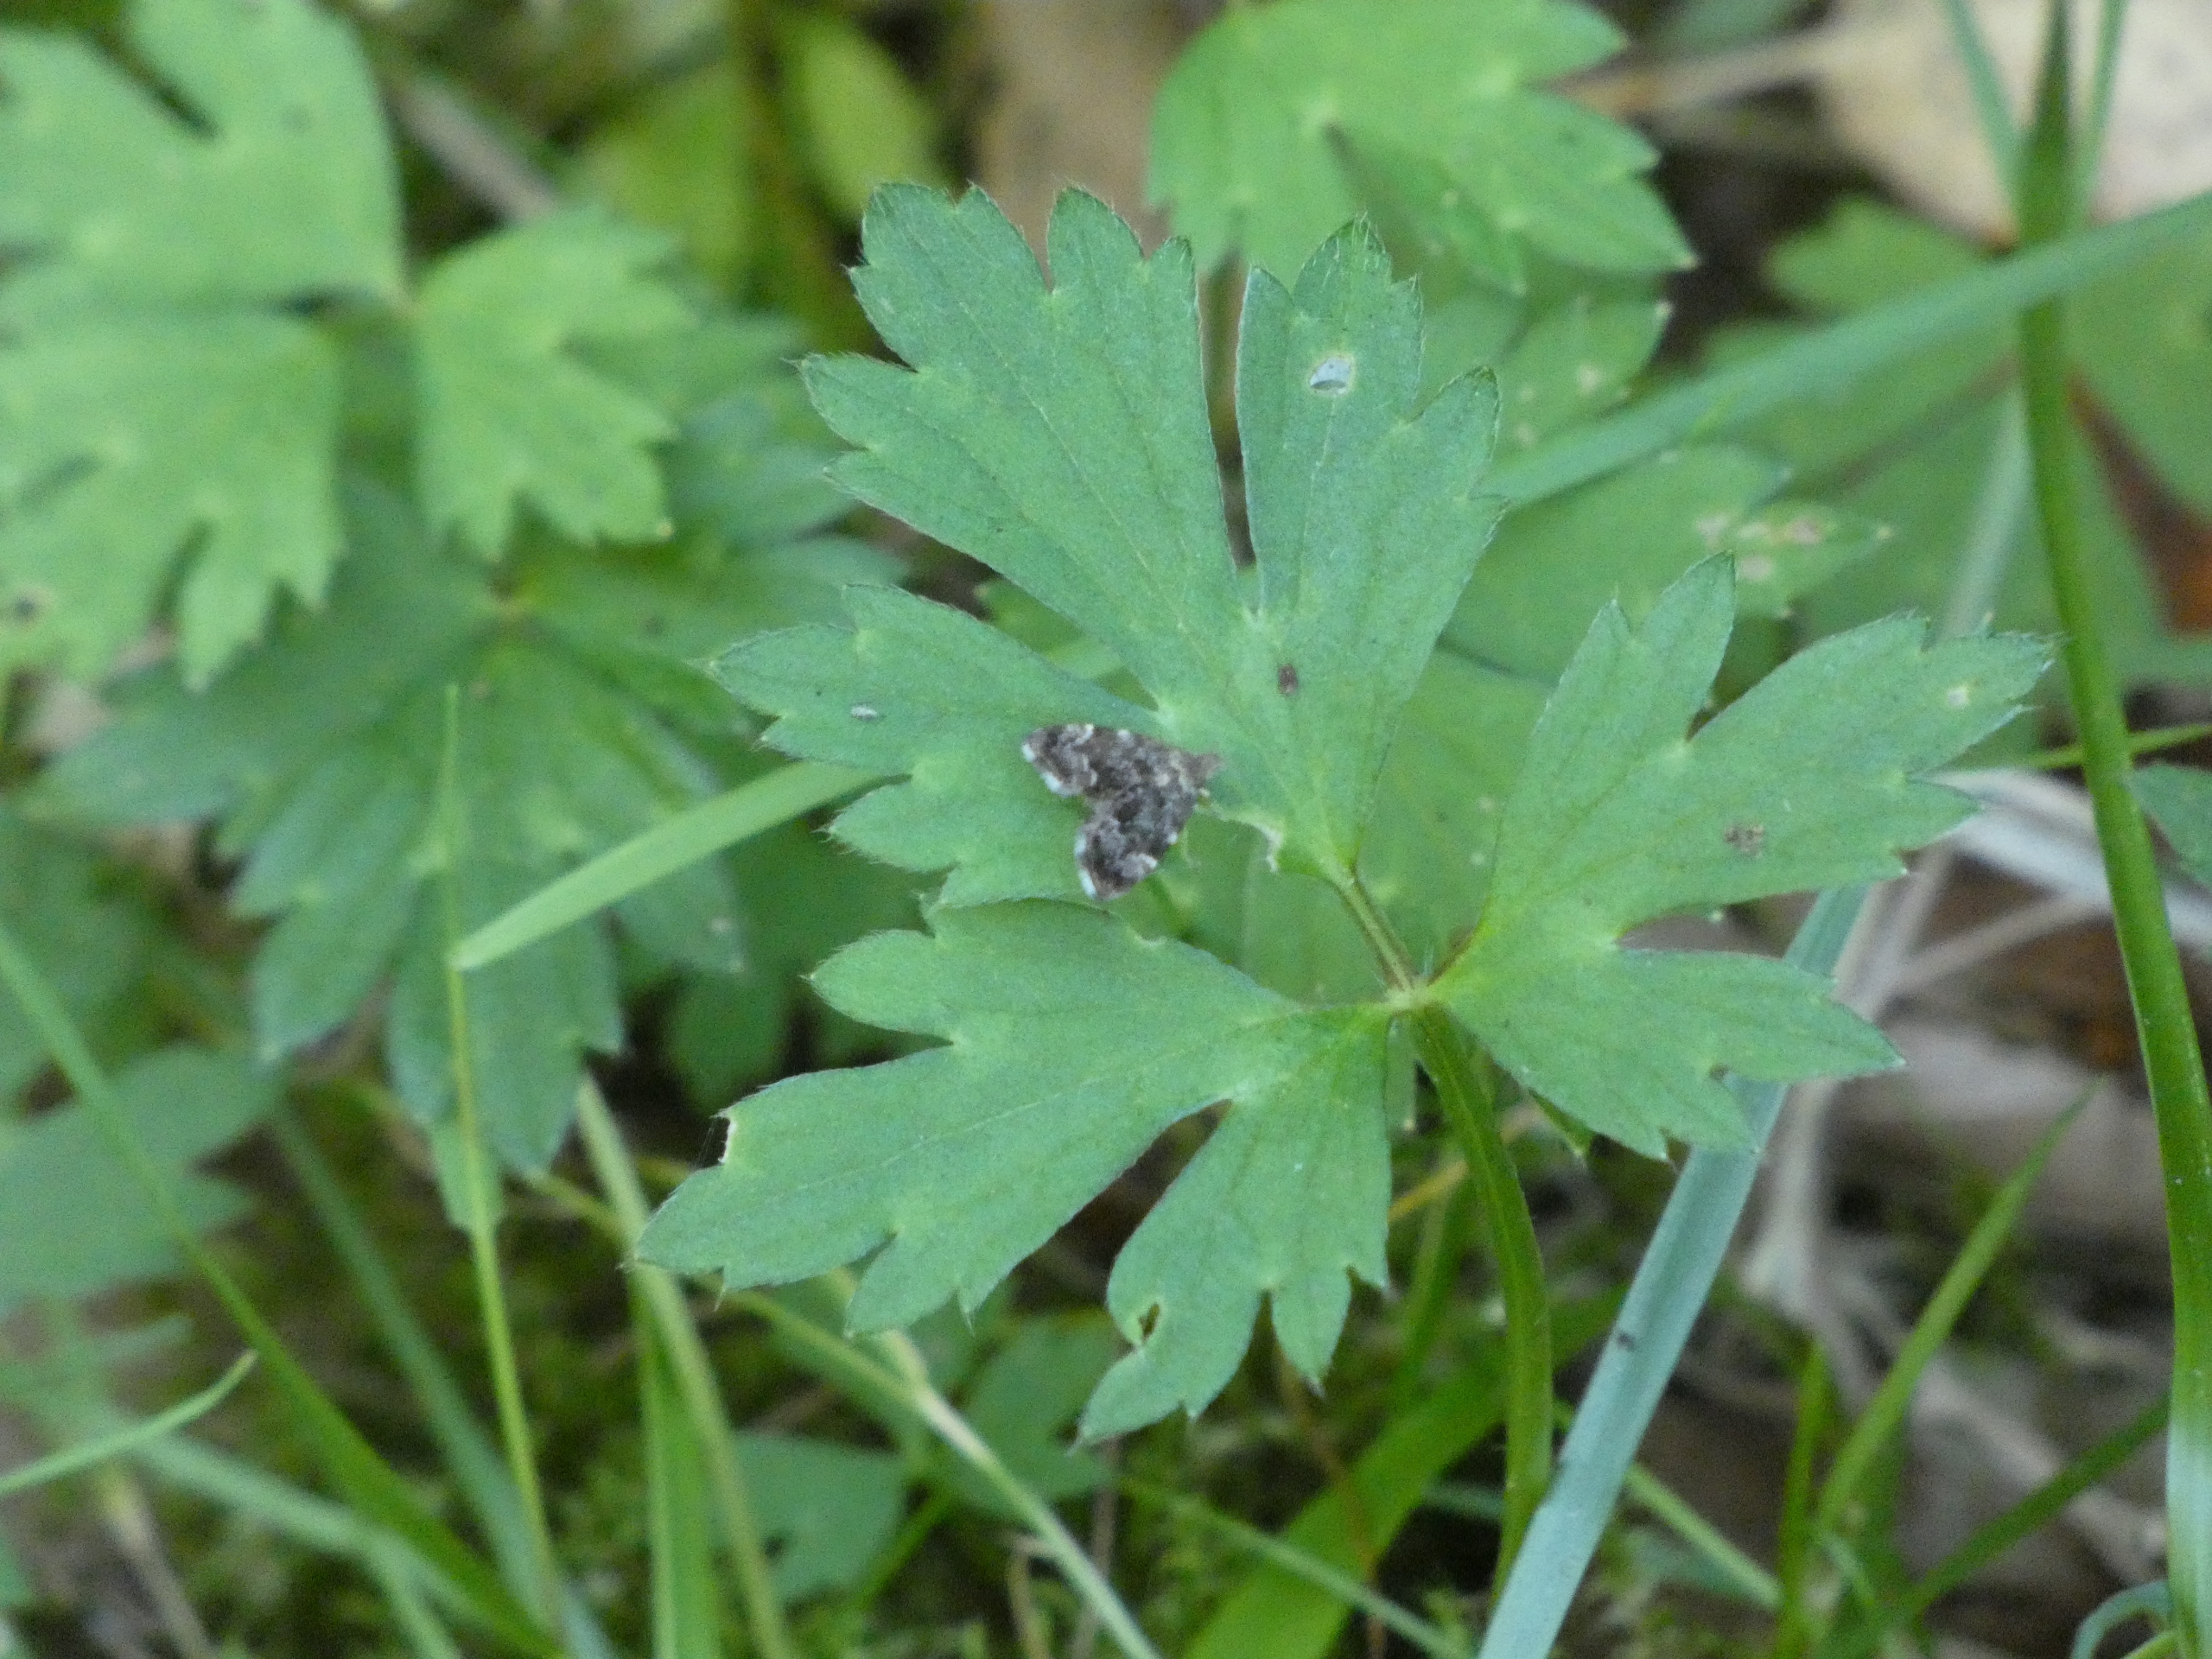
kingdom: Animalia
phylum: Arthropoda
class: Insecta
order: Lepidoptera
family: Choreutidae
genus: Anthophila
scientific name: Anthophila fabriciana
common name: Bredvinget nældevikler
